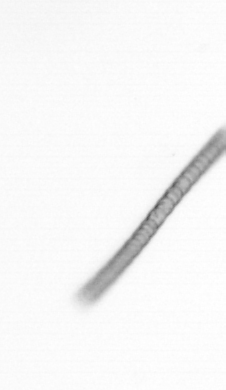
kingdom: Chromista
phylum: Ochrophyta
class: Bacillariophyceae
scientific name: Bacillariophyceae
